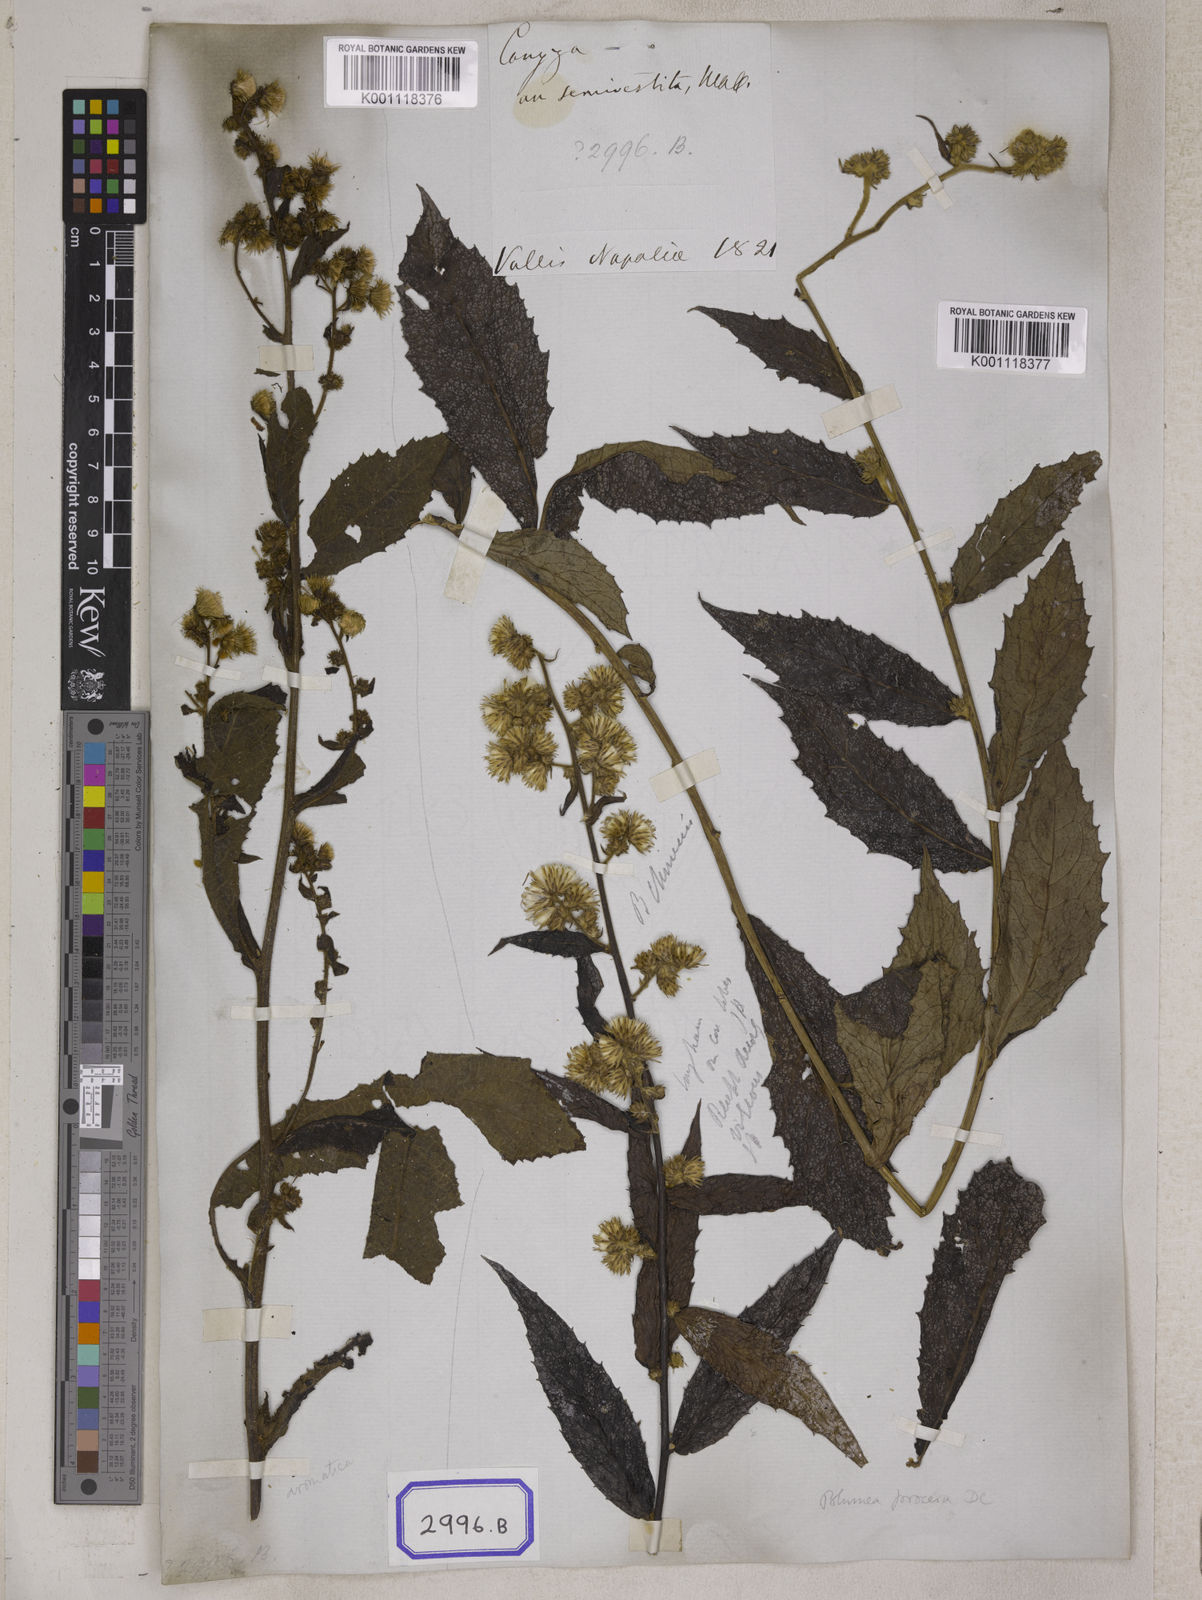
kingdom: Plantae
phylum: Tracheophyta
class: Magnoliopsida
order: Asterales
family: Asteraceae
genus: Blumea
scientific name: Blumea repanda
